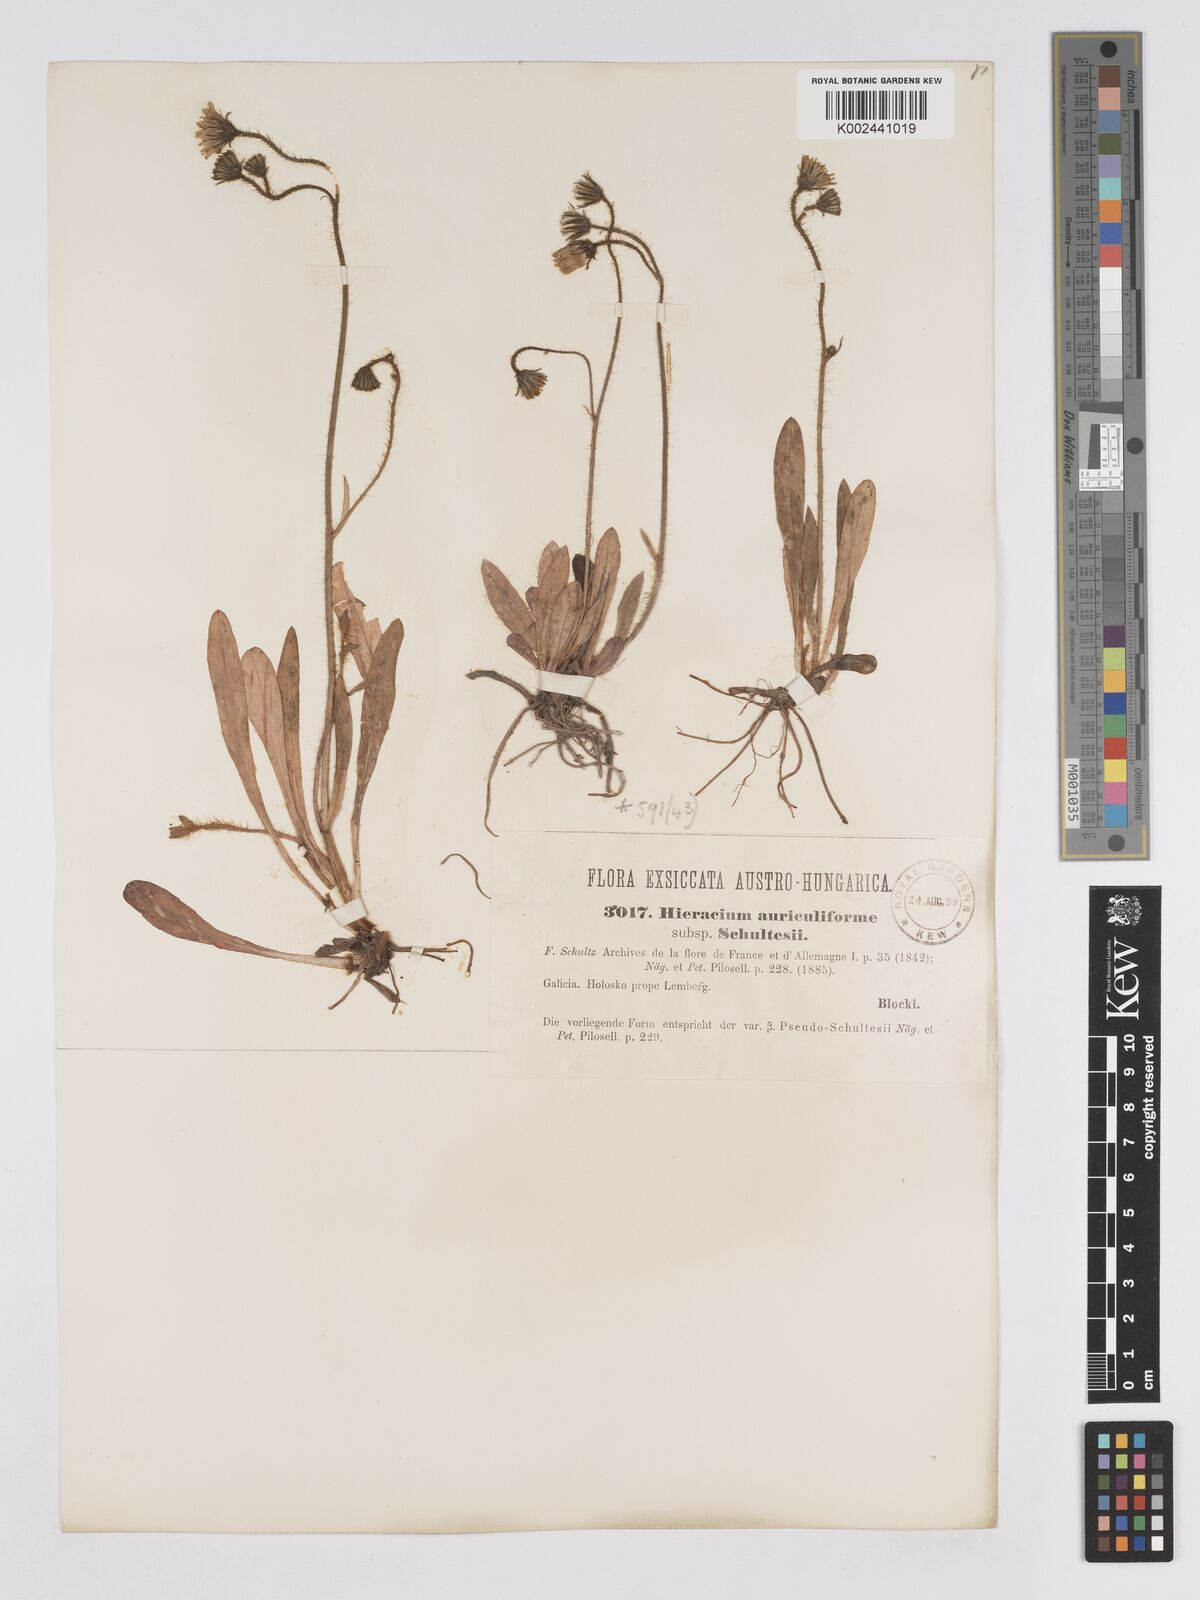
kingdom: Plantae
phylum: Tracheophyta
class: Magnoliopsida
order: Asterales
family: Asteraceae
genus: Pilosella
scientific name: Pilosella schultesii
